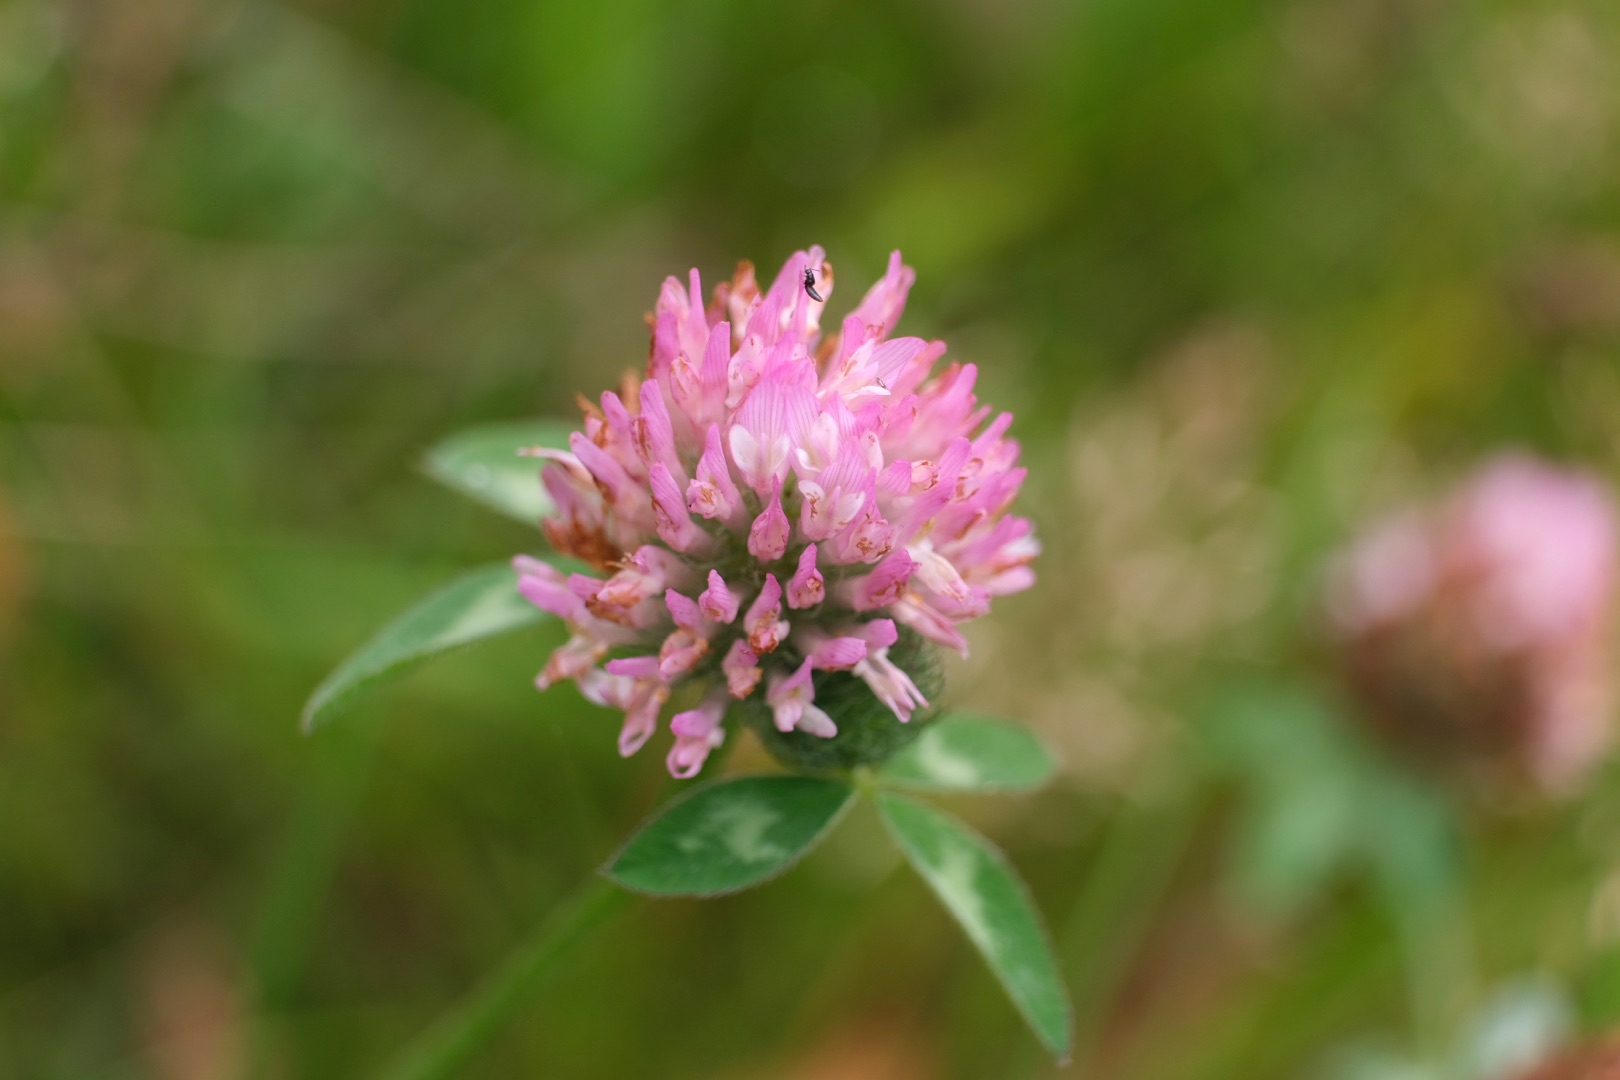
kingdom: Plantae
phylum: Tracheophyta
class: Magnoliopsida
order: Fabales
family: Fabaceae
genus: Trifolium
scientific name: Trifolium pratense
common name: Rød-kløver
